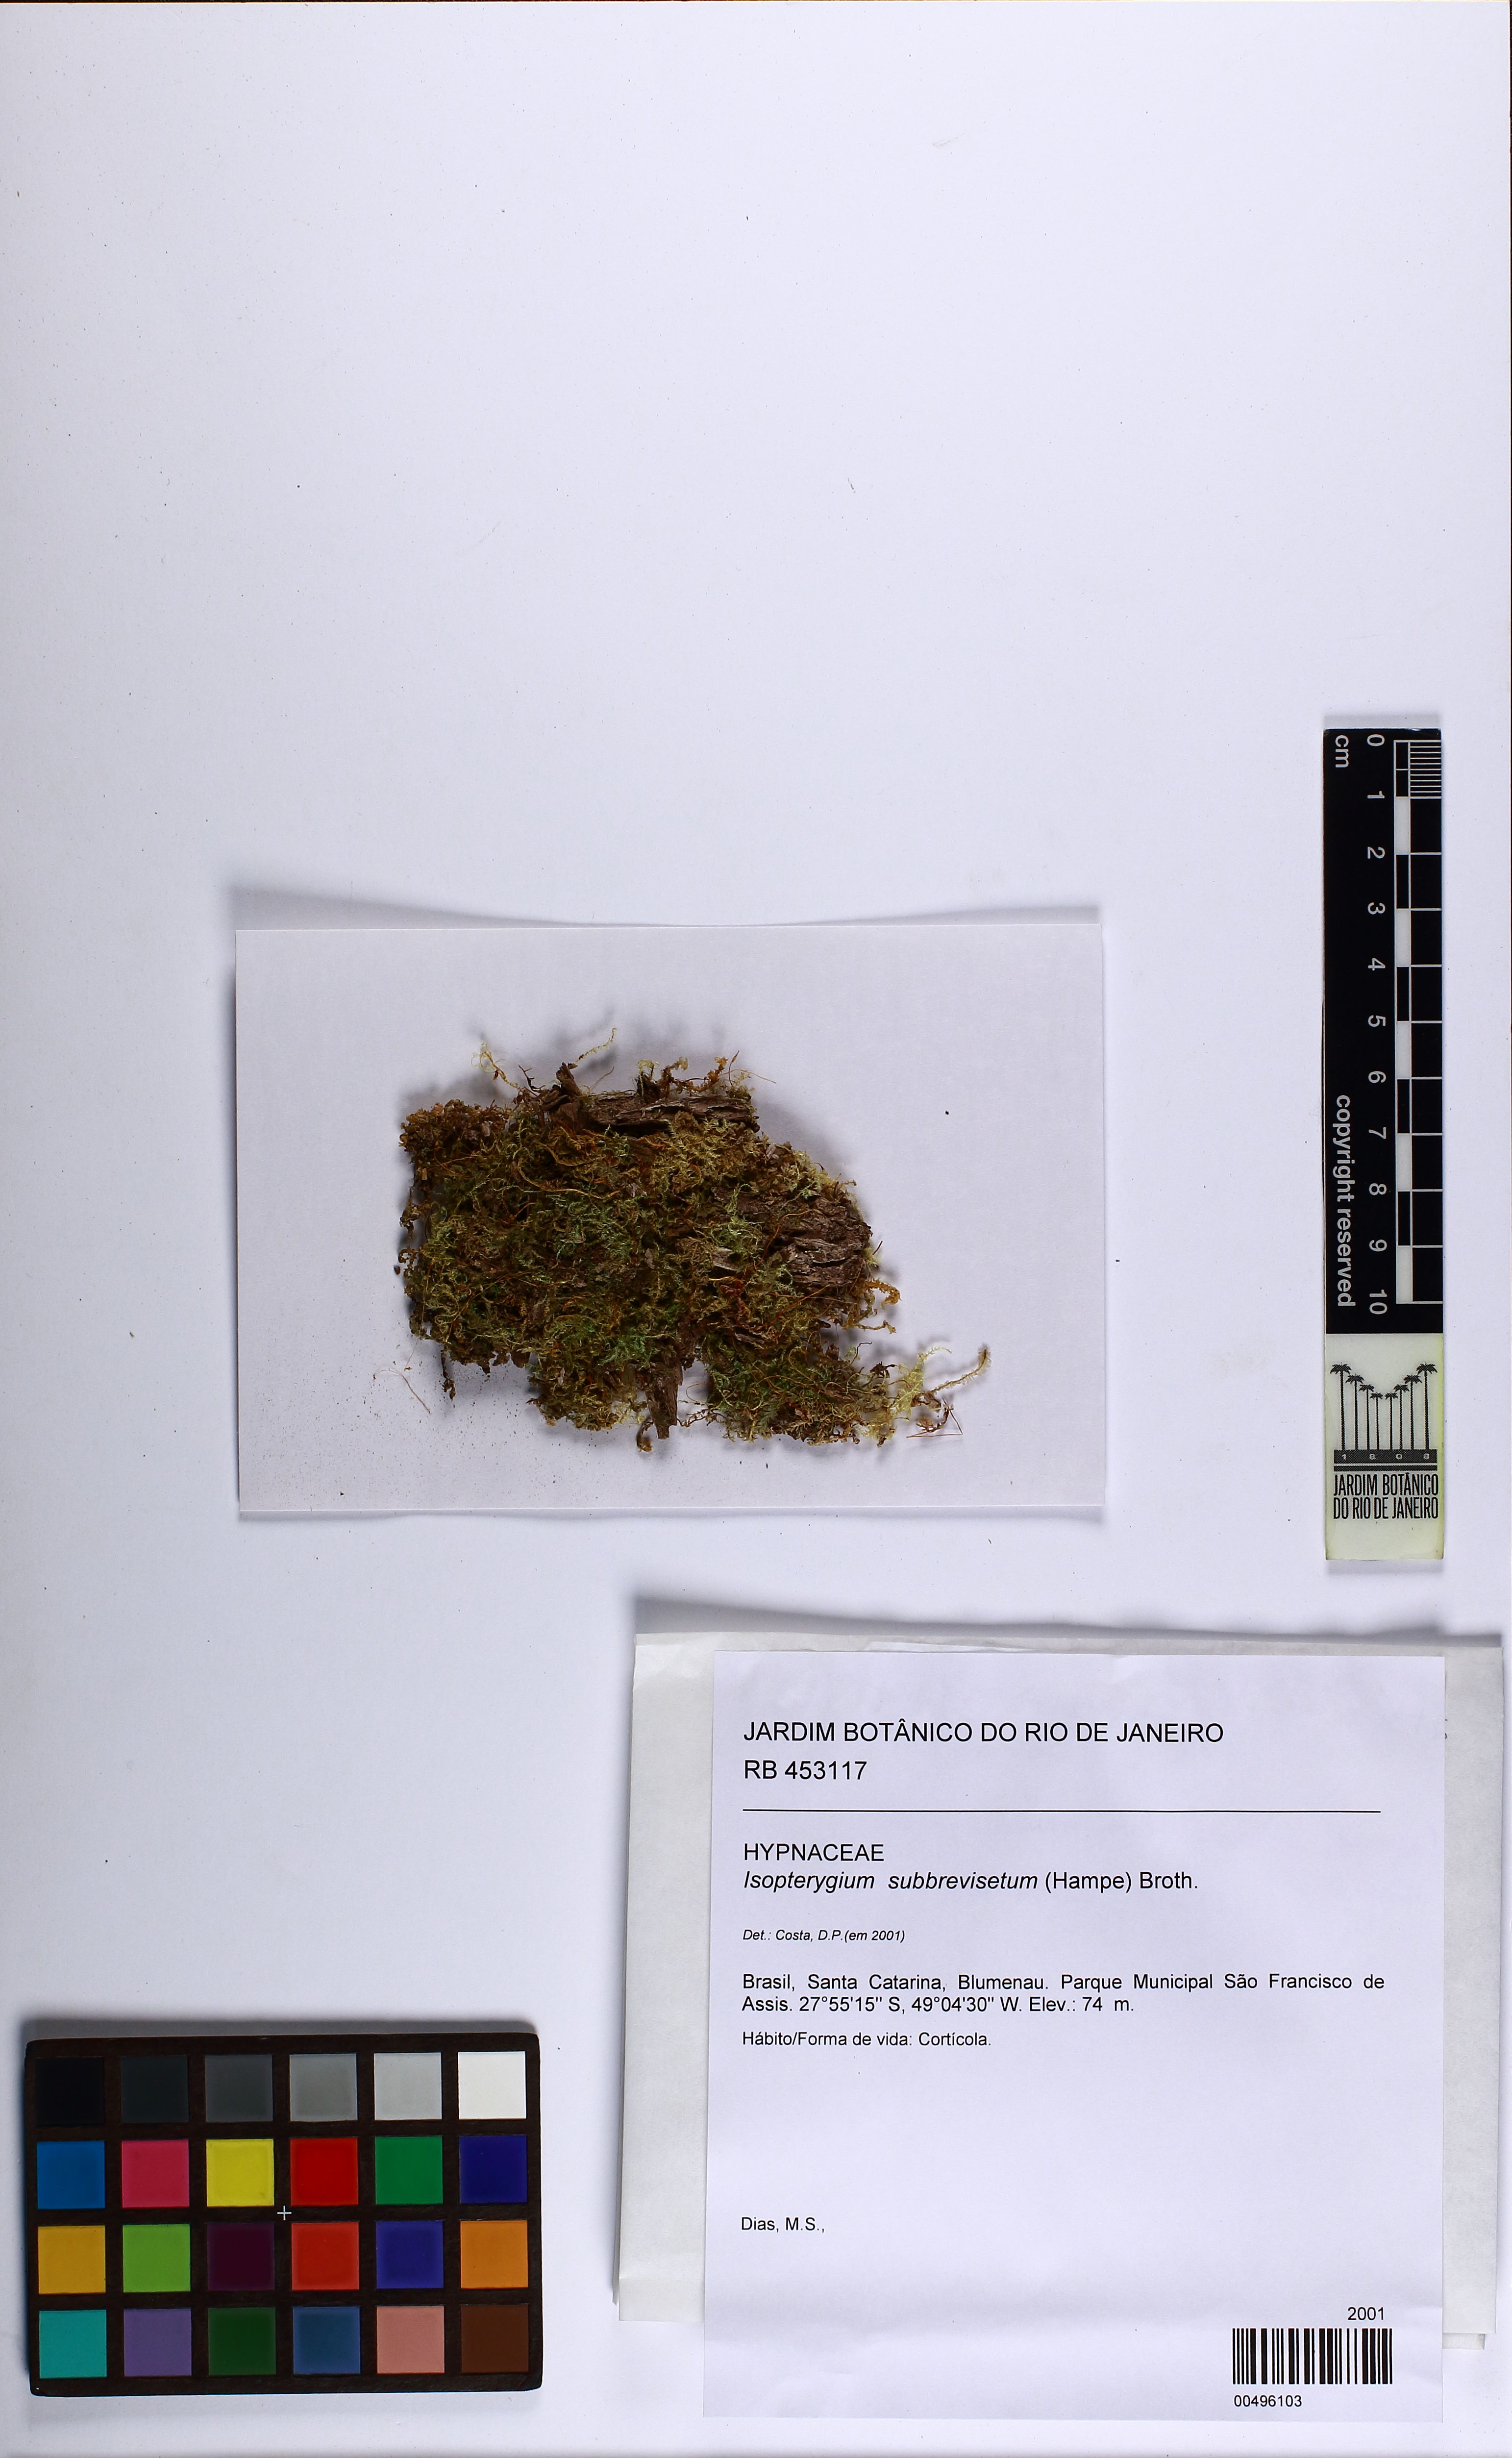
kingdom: Plantae
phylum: Bryophyta
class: Bryopsida
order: Hypnales
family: Pylaisiadelphaceae
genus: Isopterygium
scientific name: Isopterygium subbrevisetum
